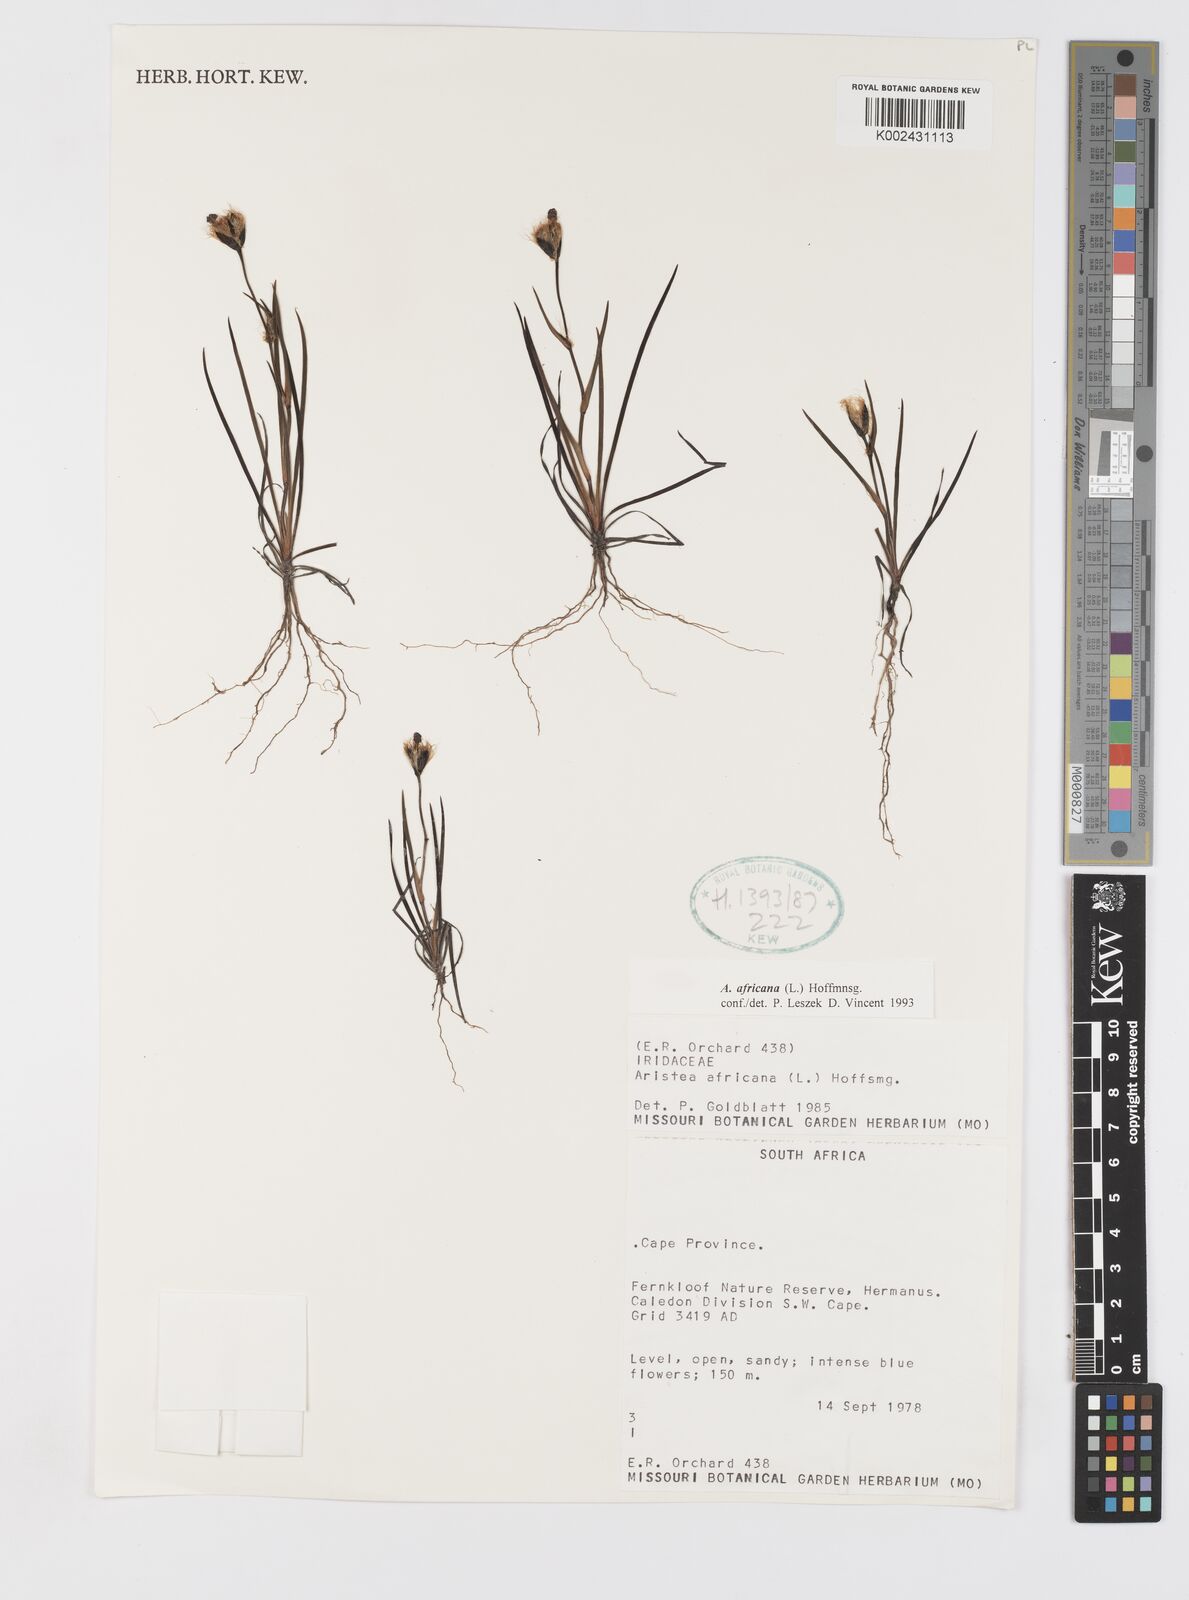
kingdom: Plantae
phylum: Tracheophyta
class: Liliopsida
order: Asparagales
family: Iridaceae
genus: Aristea
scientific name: Aristea africana
